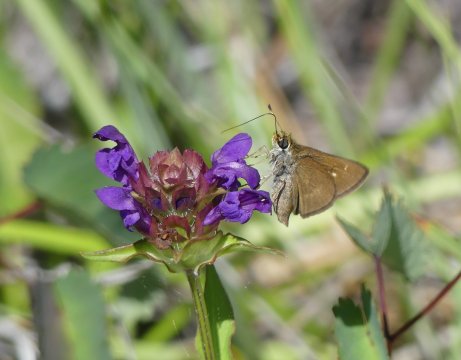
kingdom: Animalia
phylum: Arthropoda
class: Insecta
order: Lepidoptera
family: Hesperiidae
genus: Euphyes
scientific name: Euphyes vestris
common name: Dun Skipper
